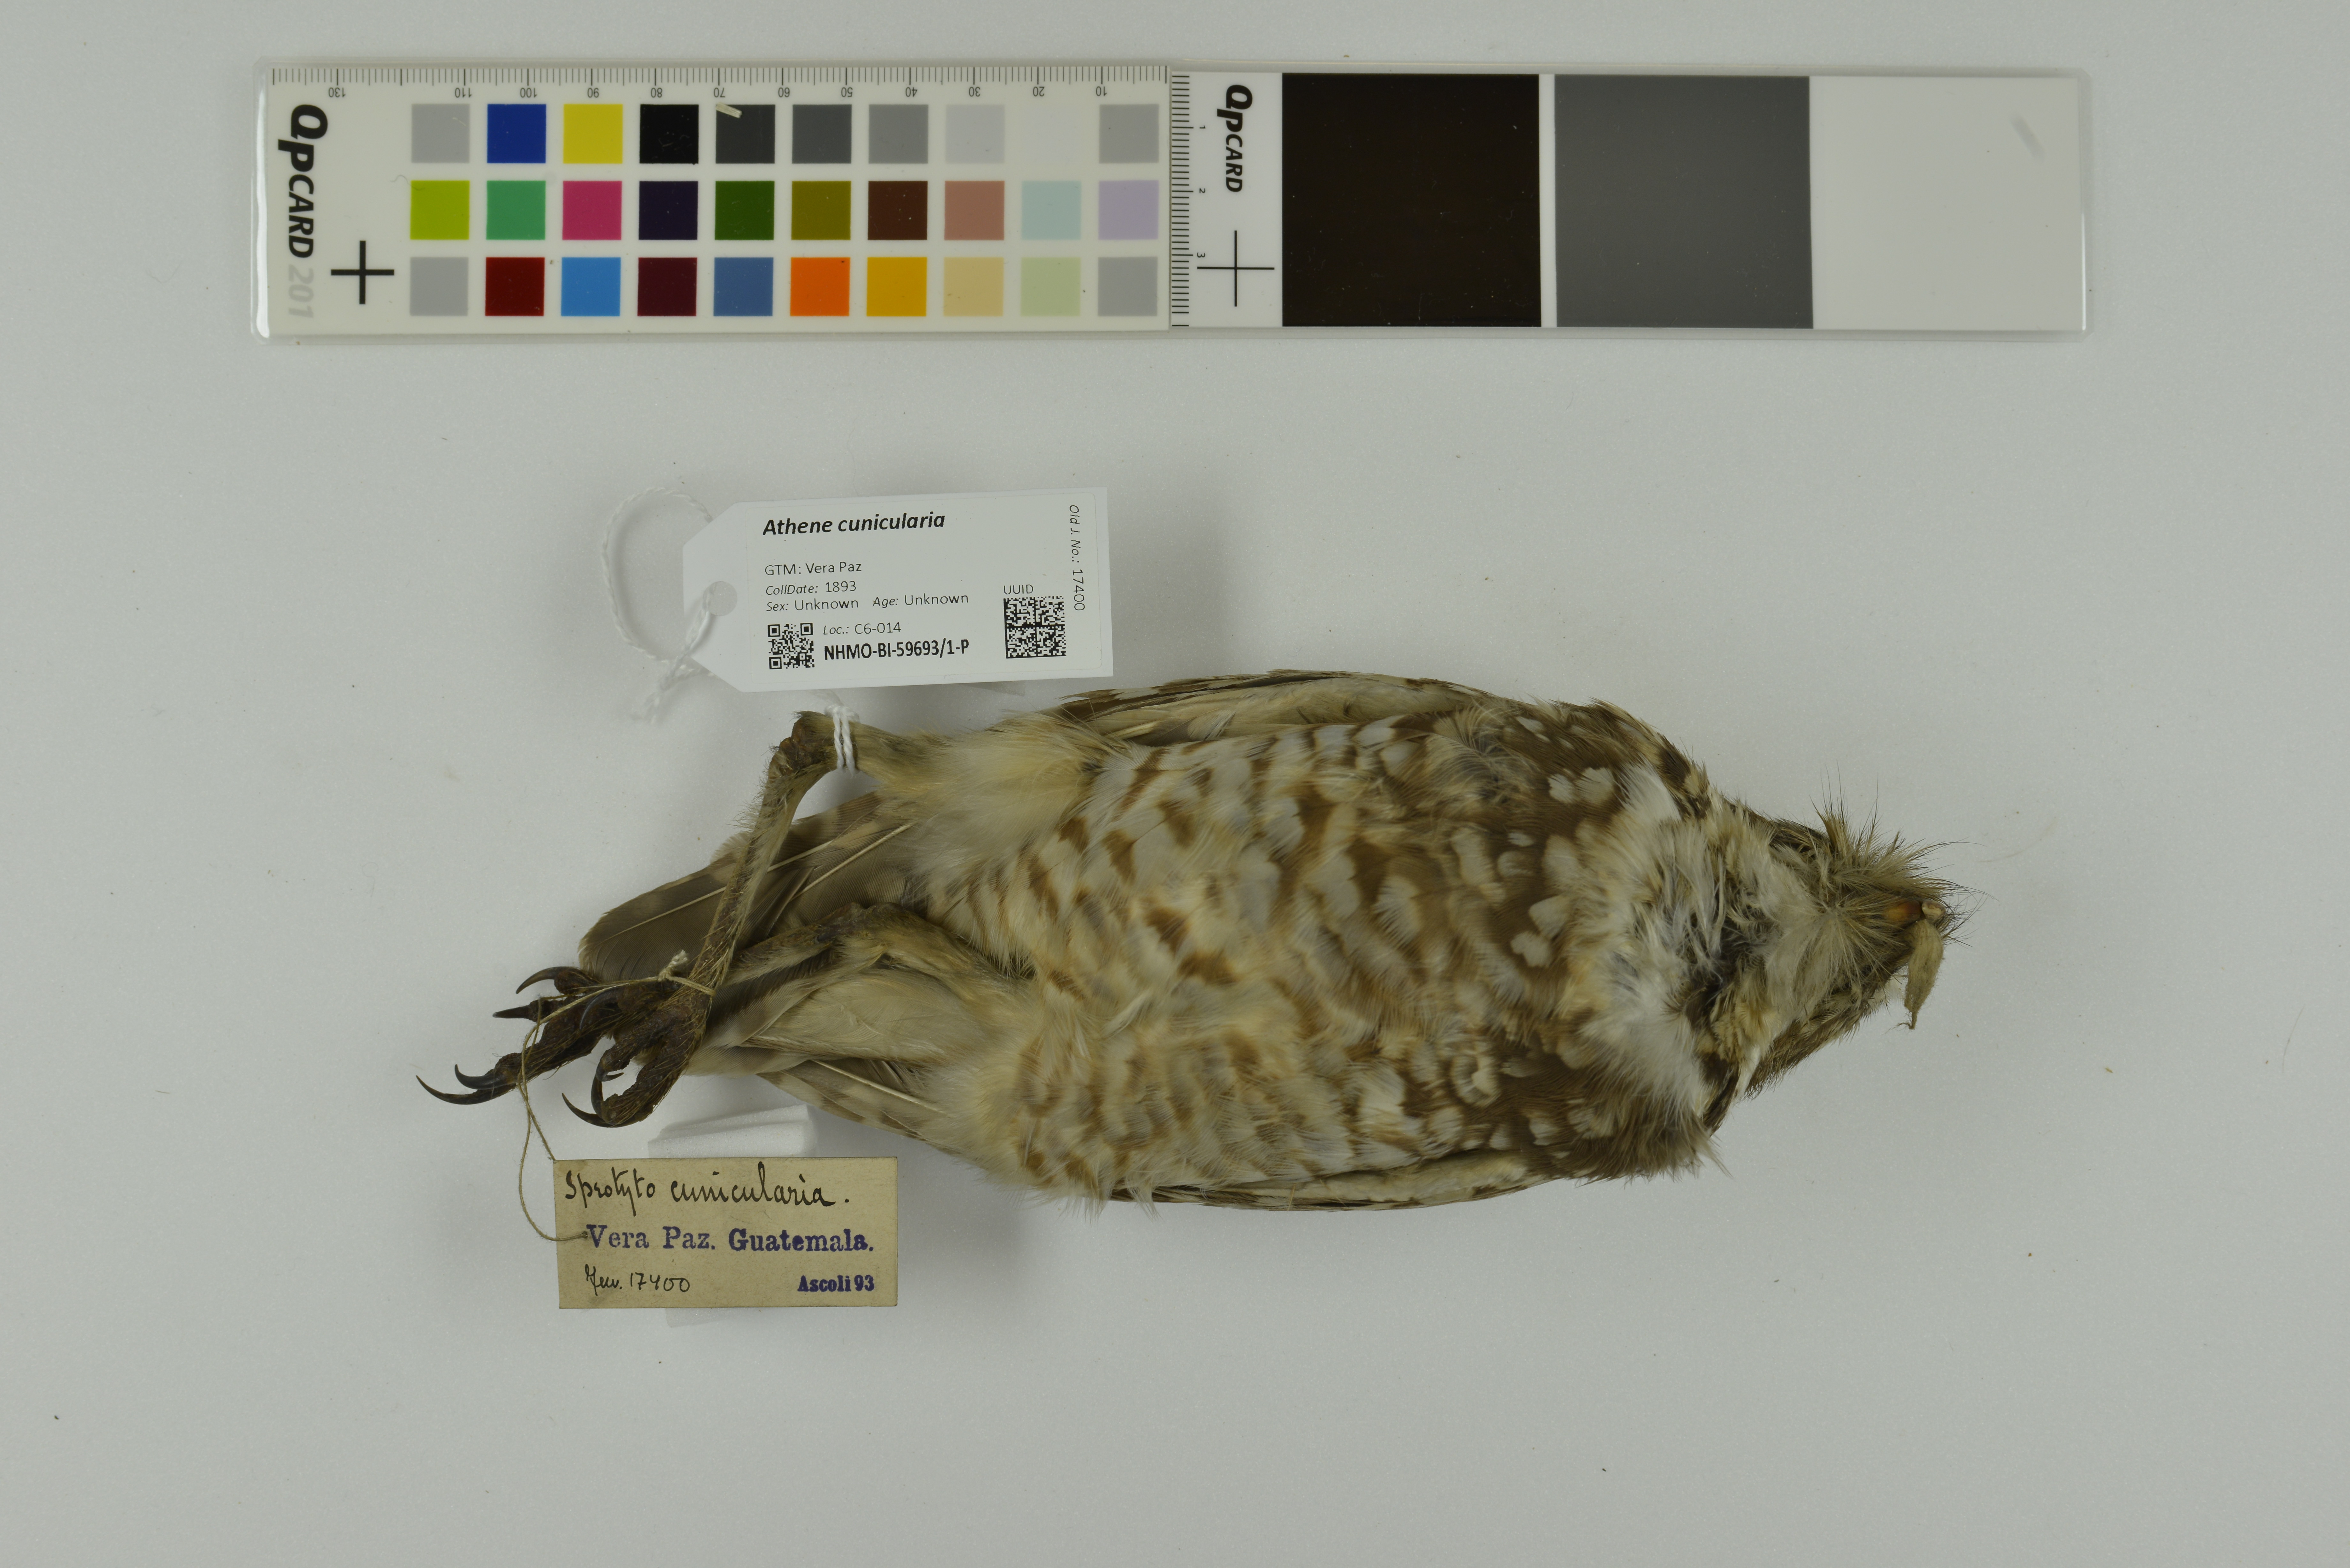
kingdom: Animalia
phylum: Chordata
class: Aves
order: Strigiformes
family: Strigidae
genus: Athene
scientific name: Athene cunicularia
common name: Burrowing owl
